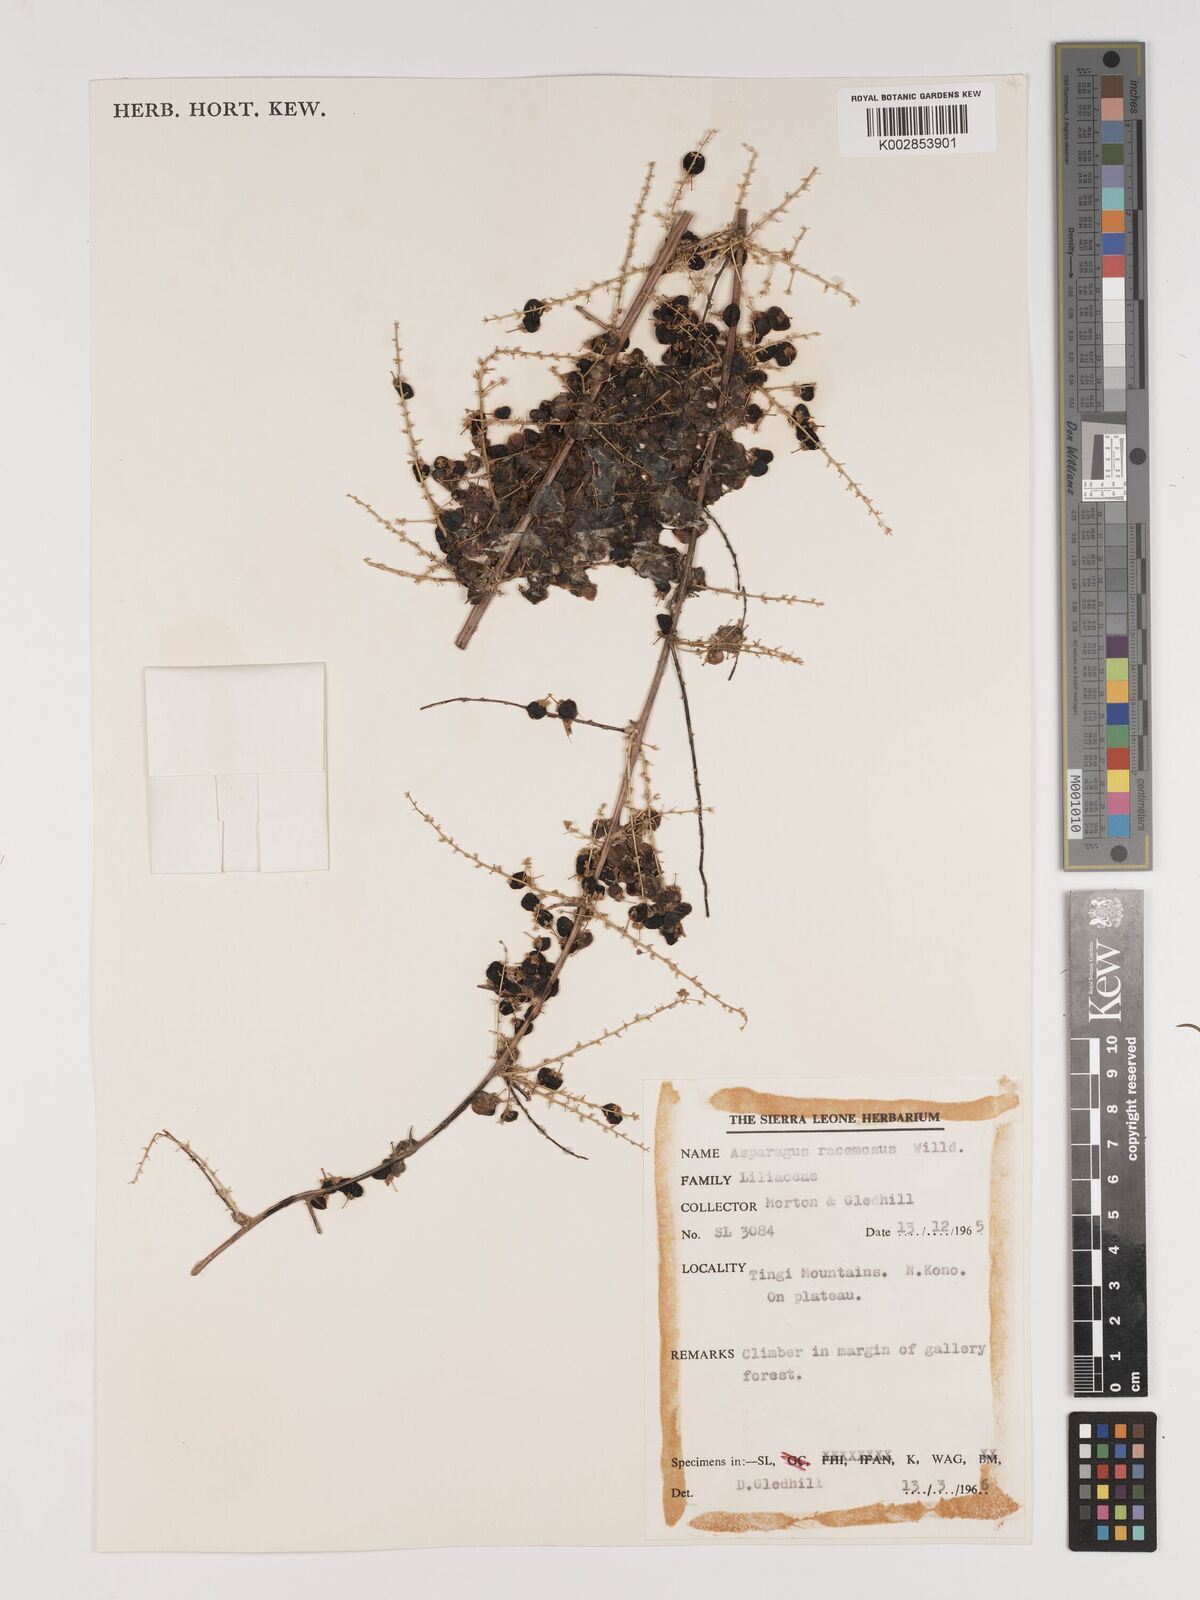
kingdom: Plantae
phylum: Tracheophyta
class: Liliopsida
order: Asparagales
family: Asparagaceae
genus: Asparagus
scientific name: Asparagus racemosus
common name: Asparagus-fern
